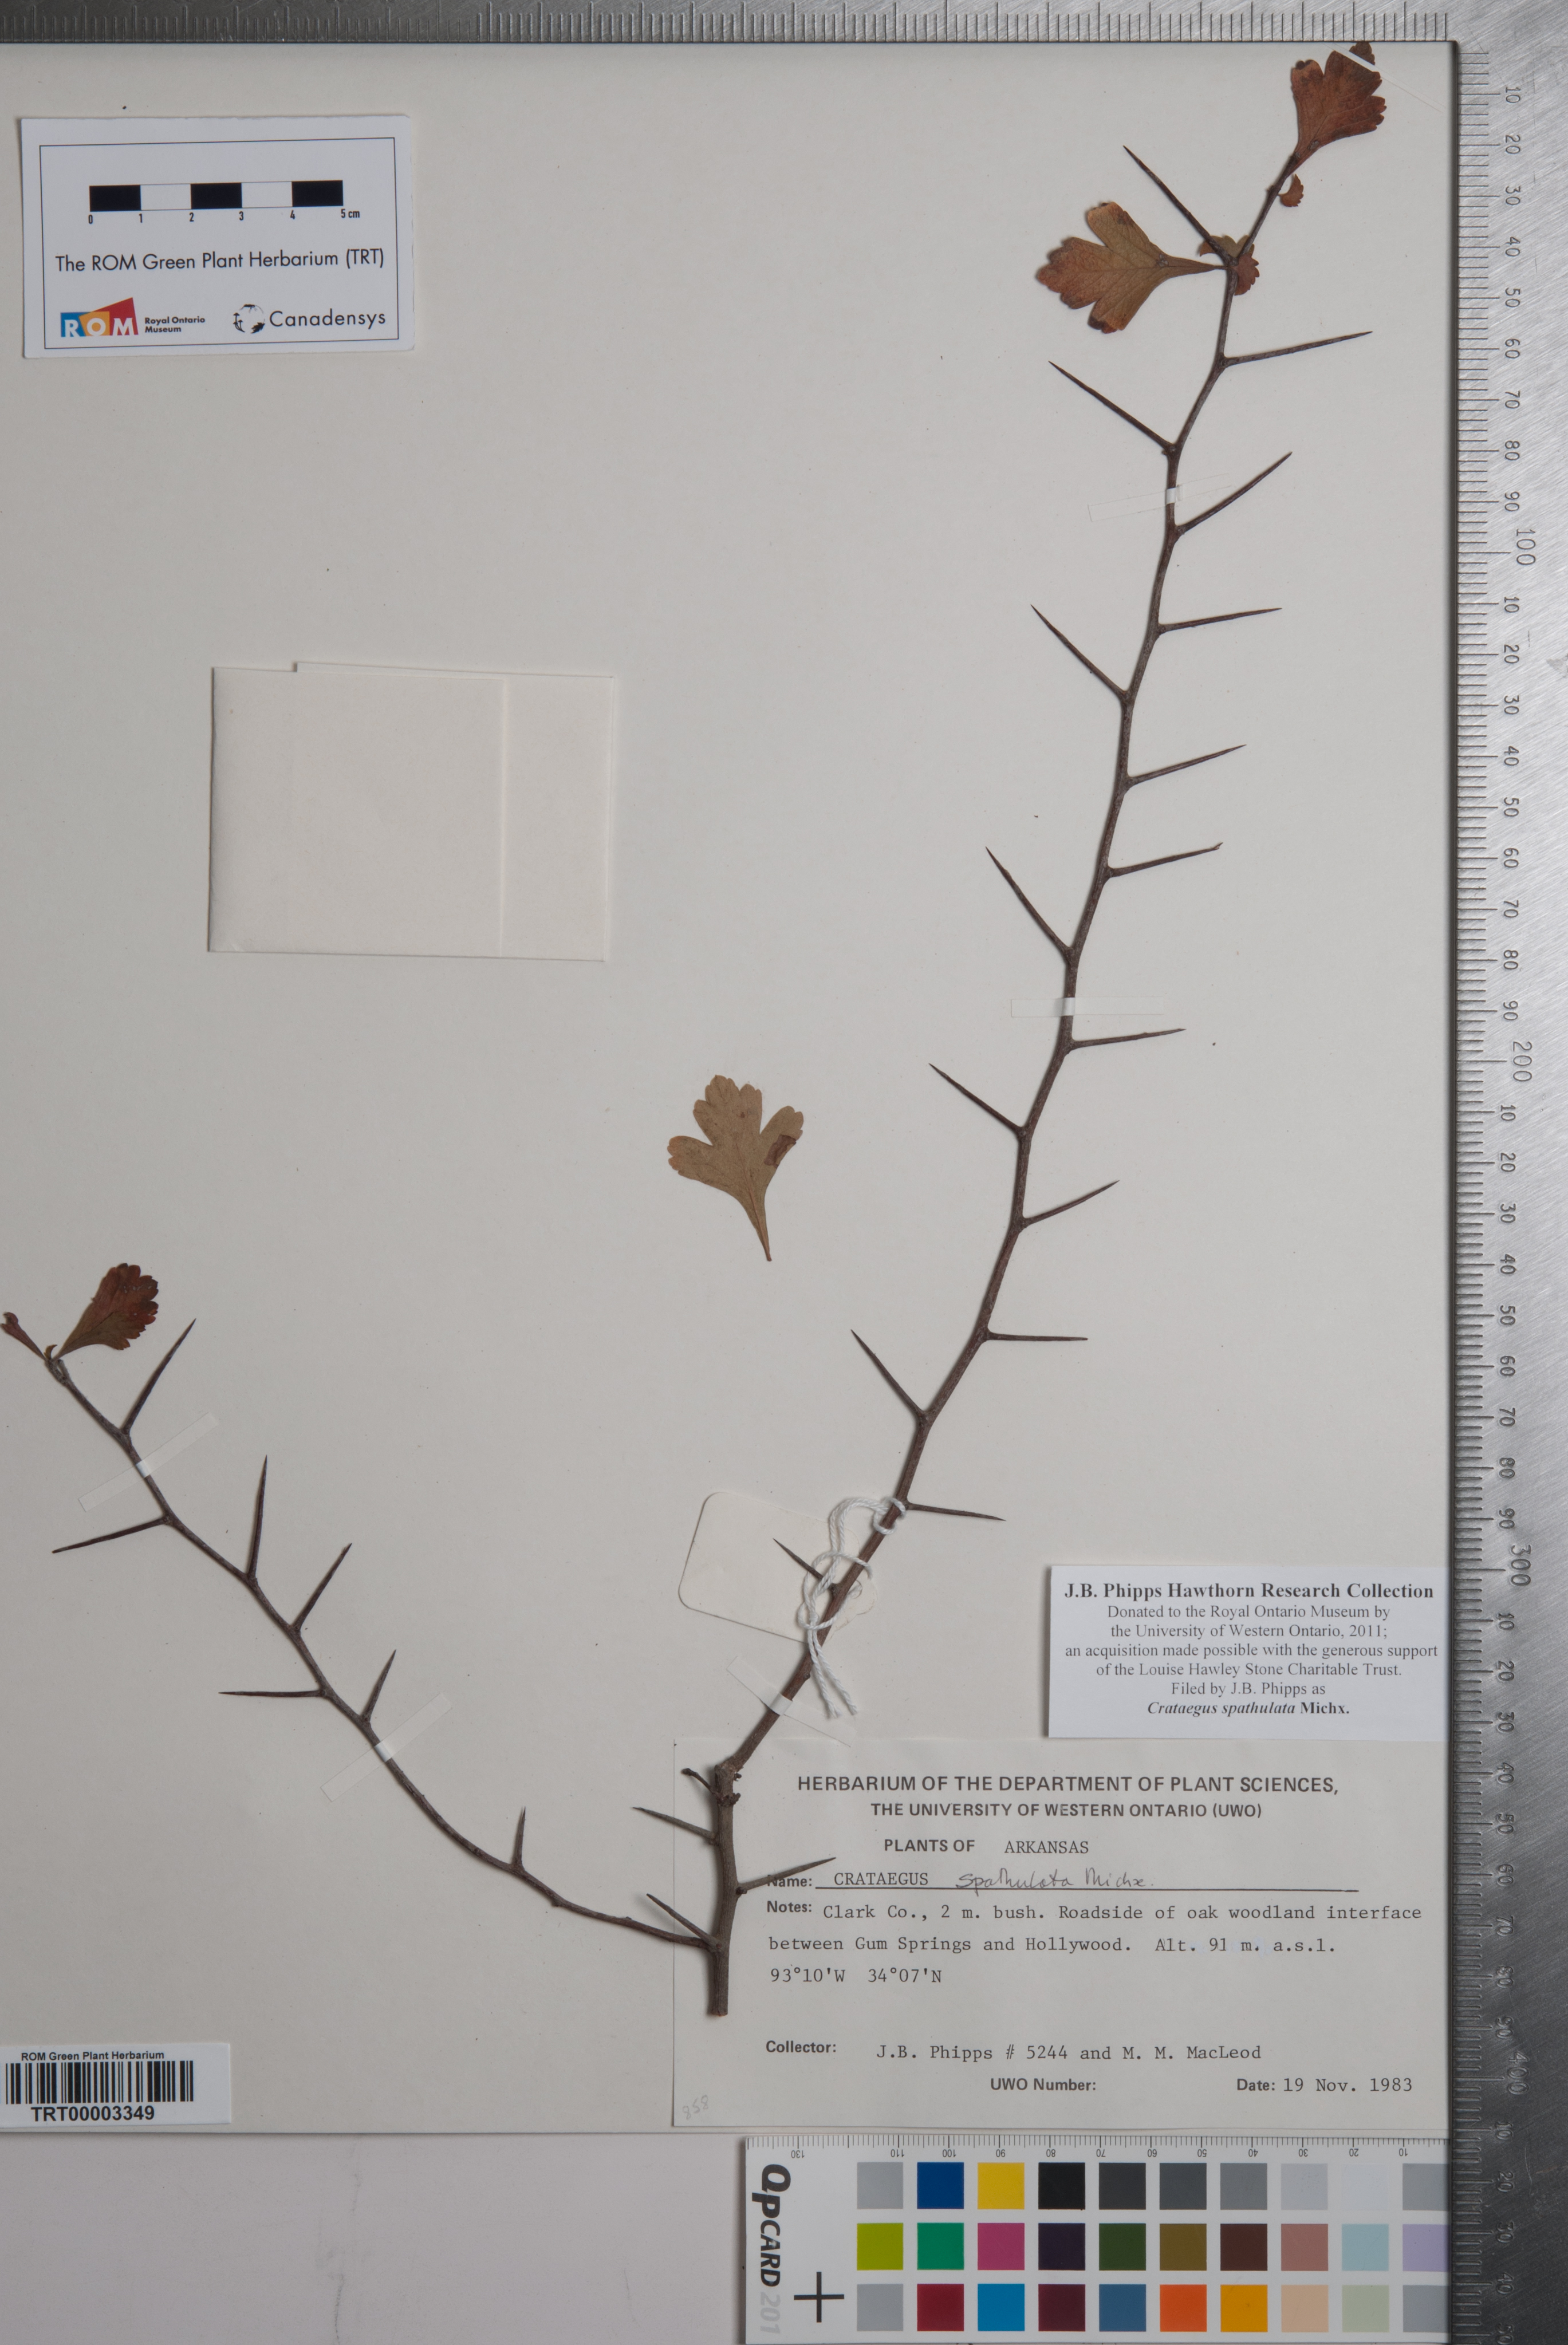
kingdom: Plantae
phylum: Tracheophyta
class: Magnoliopsida
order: Rosales
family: Rosaceae
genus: Crataegus
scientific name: Crataegus spathulata
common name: Littlehip hawthorn
